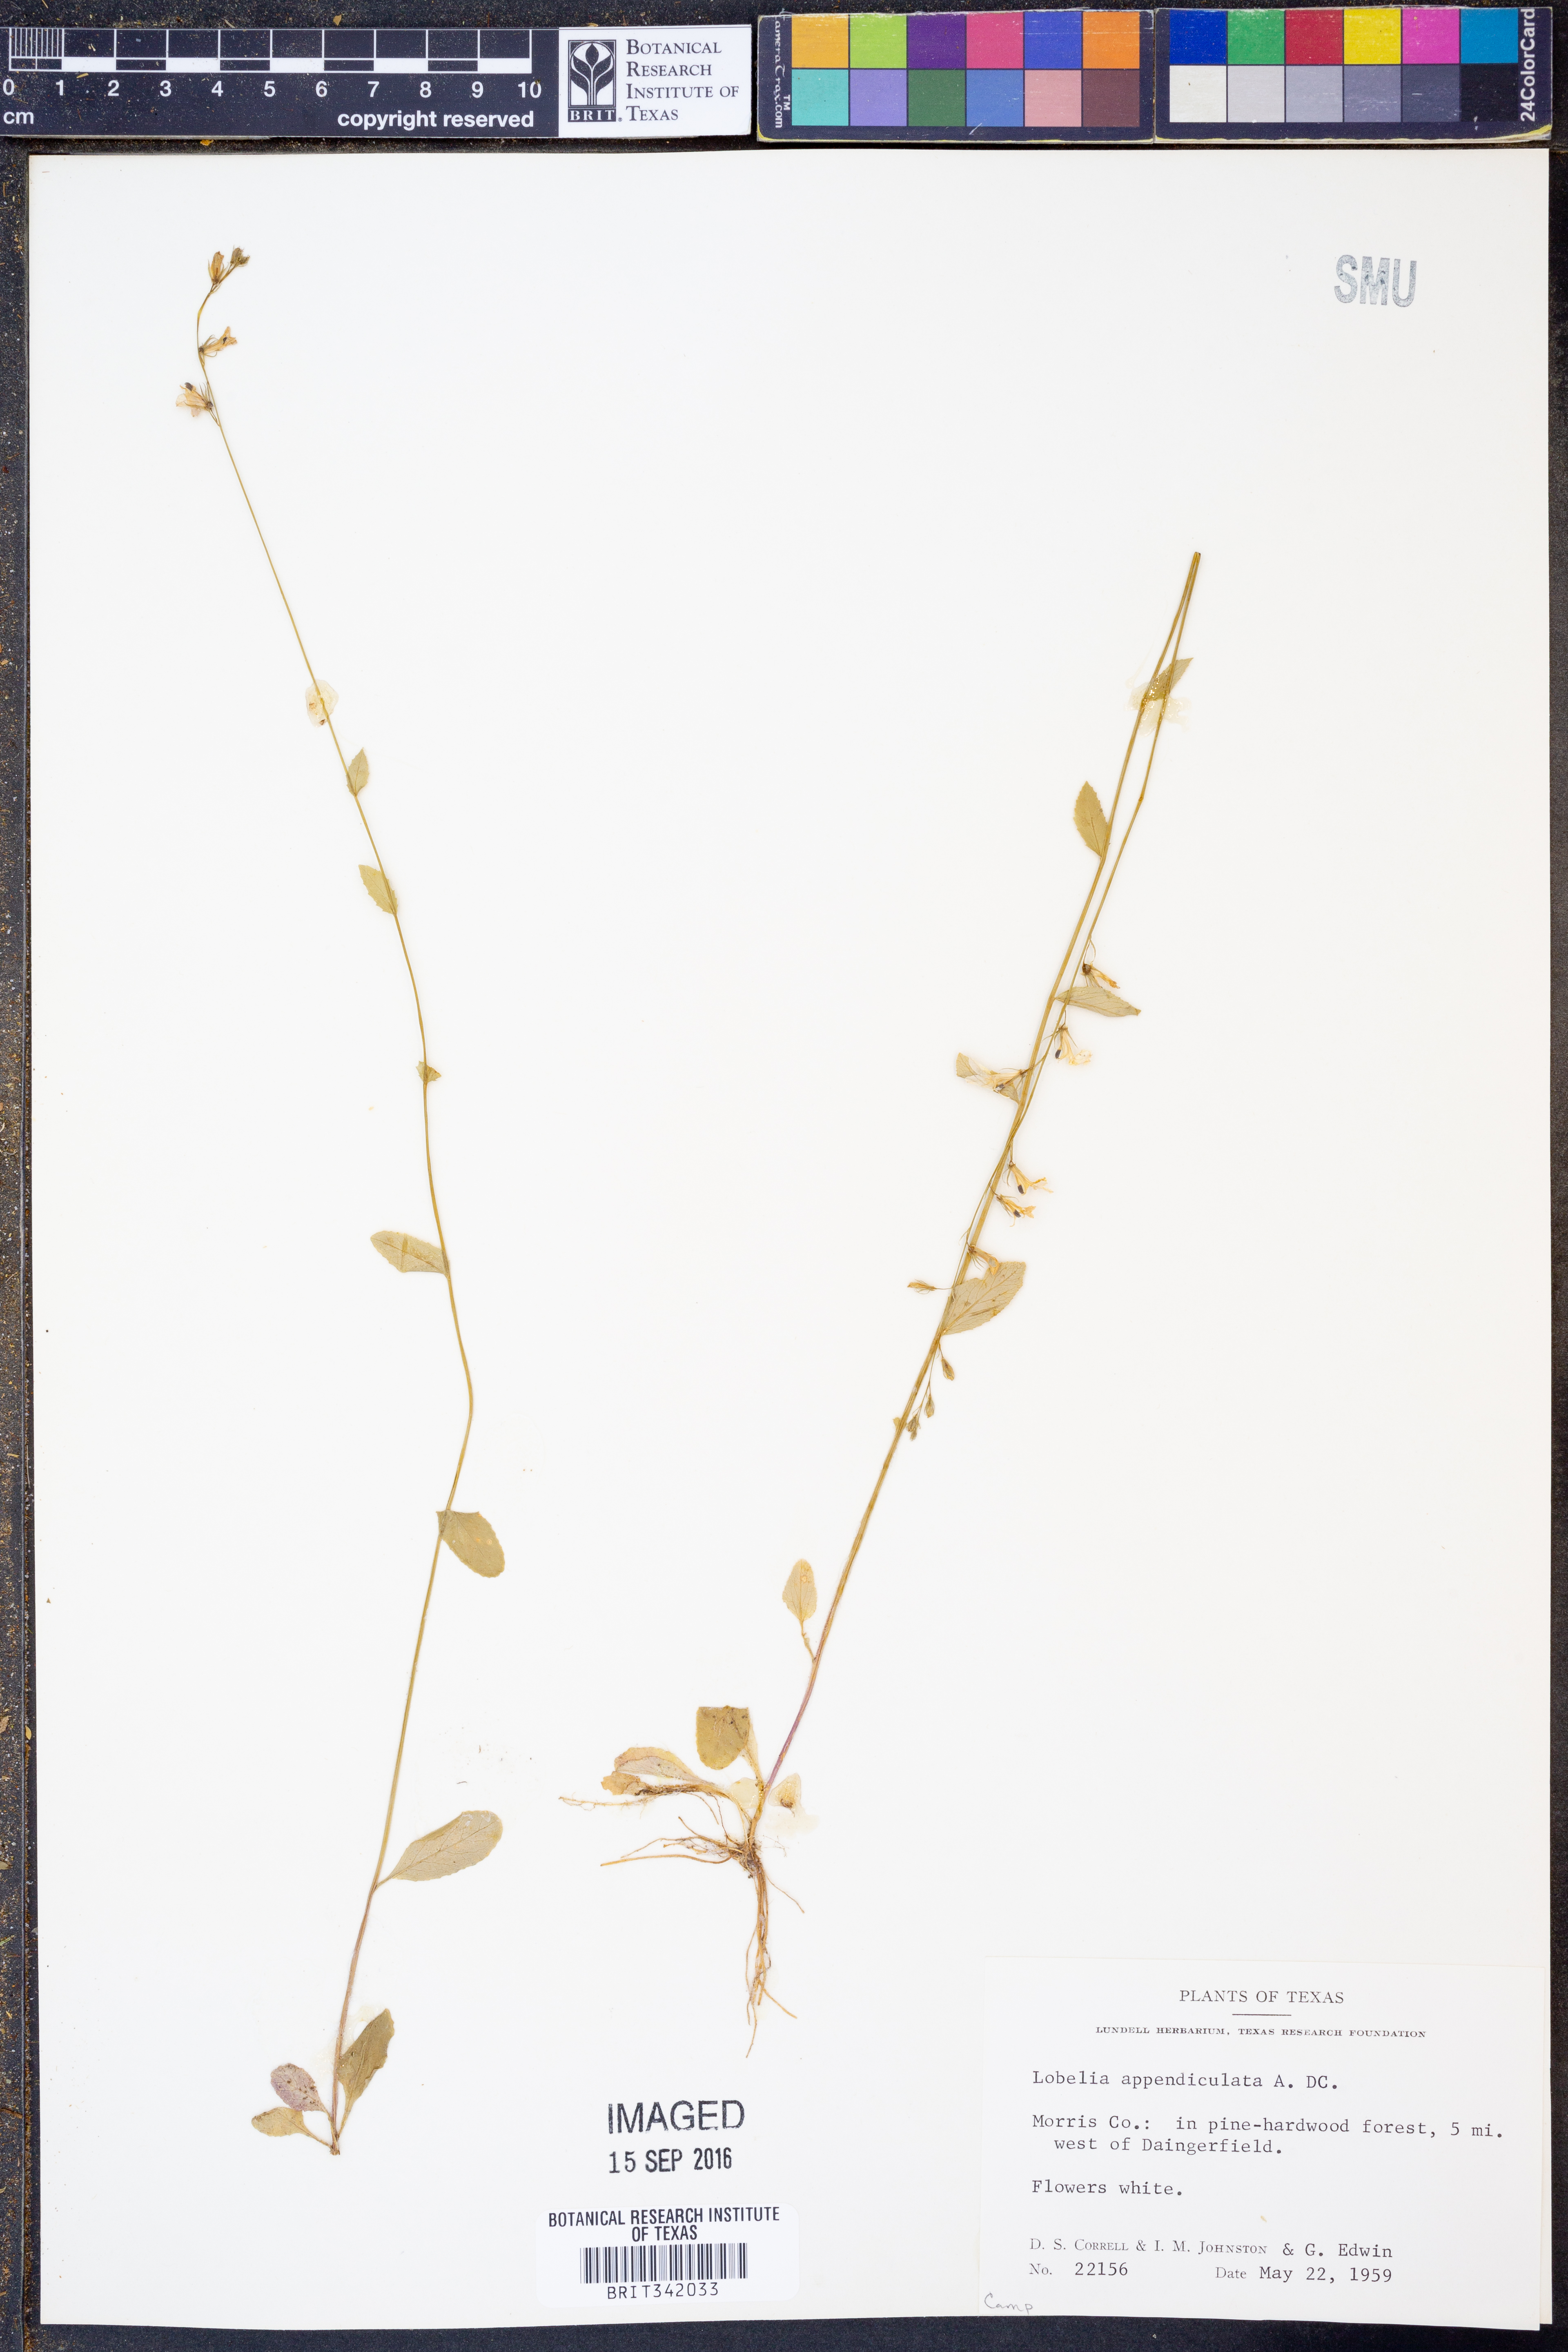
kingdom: Plantae
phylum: Tracheophyta
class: Magnoliopsida
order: Asterales
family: Campanulaceae
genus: Lobelia
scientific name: Lobelia appendiculata
